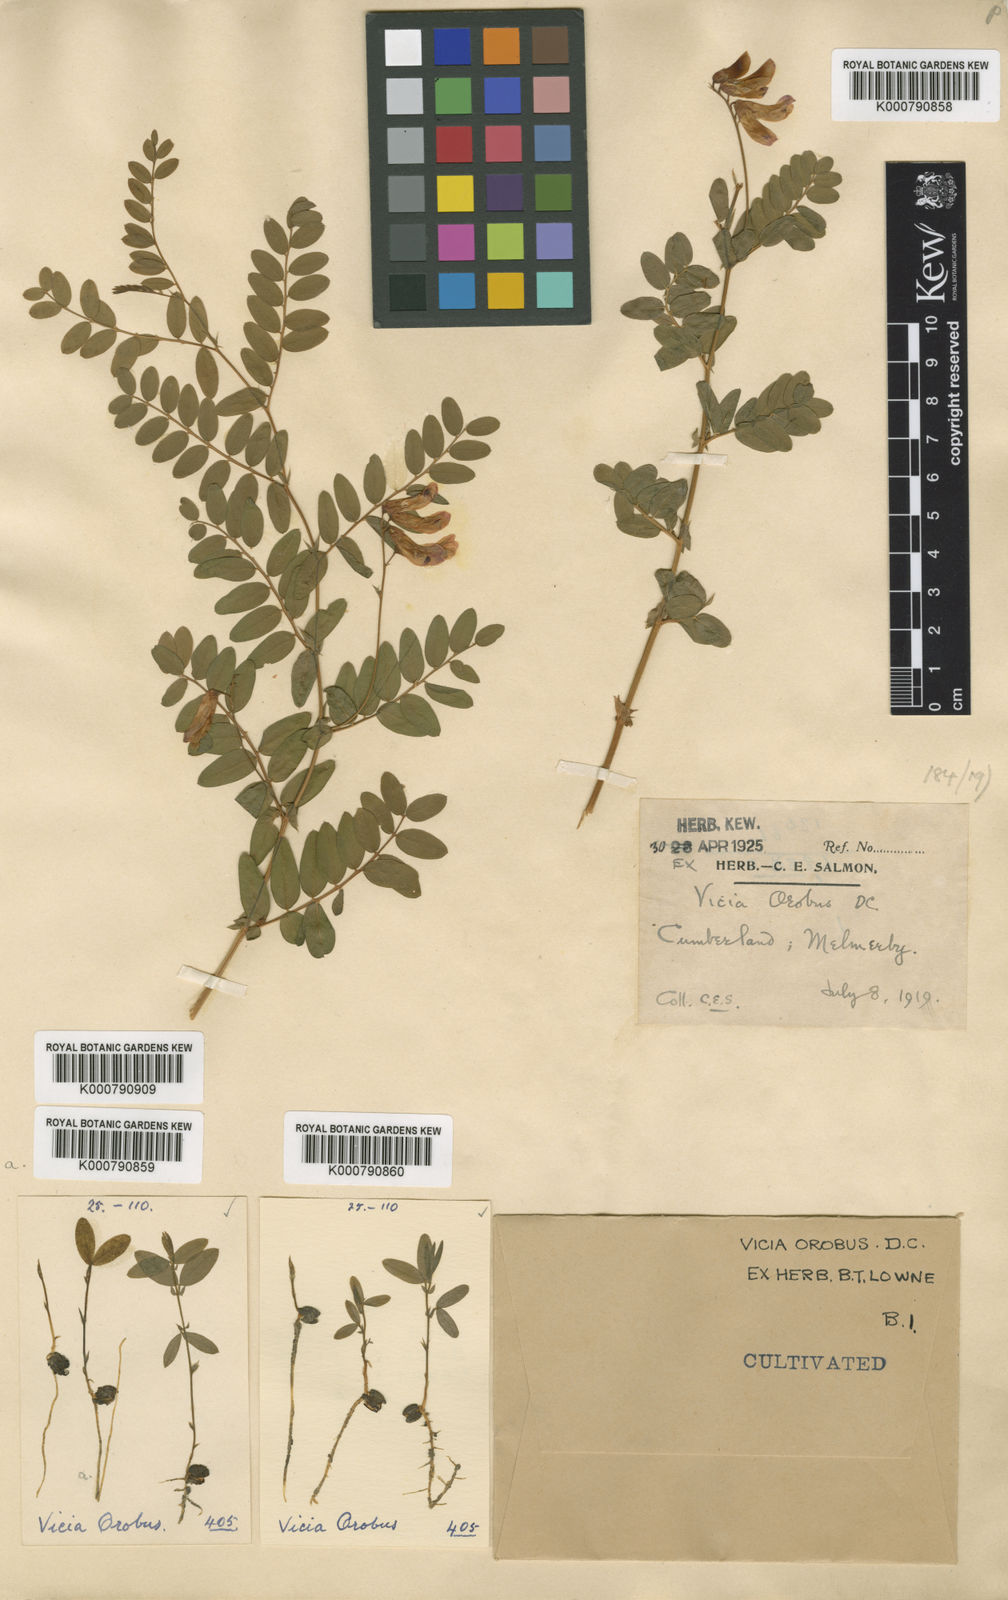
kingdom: Plantae
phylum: Tracheophyta
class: Magnoliopsida
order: Fabales
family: Fabaceae
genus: Vicia
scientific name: Vicia orobus
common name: Wood bitter-vetch
